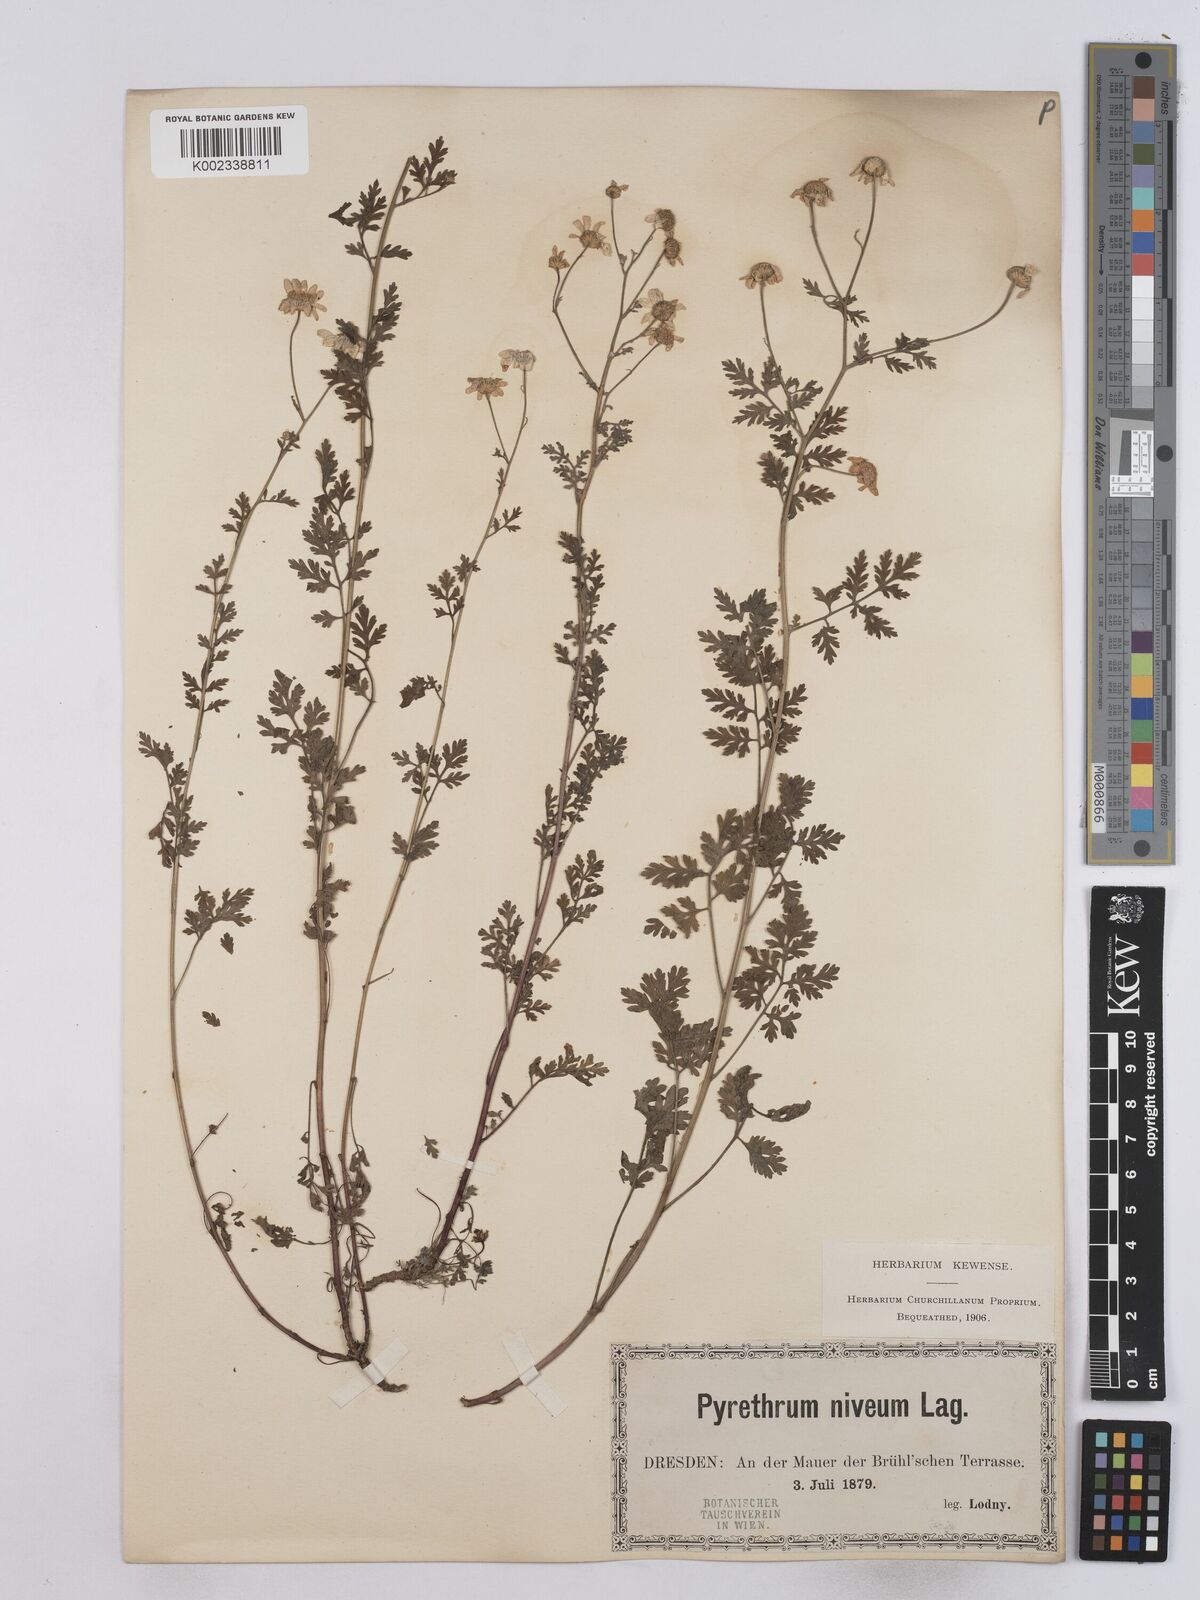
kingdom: Plantae
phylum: Tracheophyta
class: Magnoliopsida
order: Asterales
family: Asteraceae
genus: Tanacetum
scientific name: Tanacetum partheniifolium
